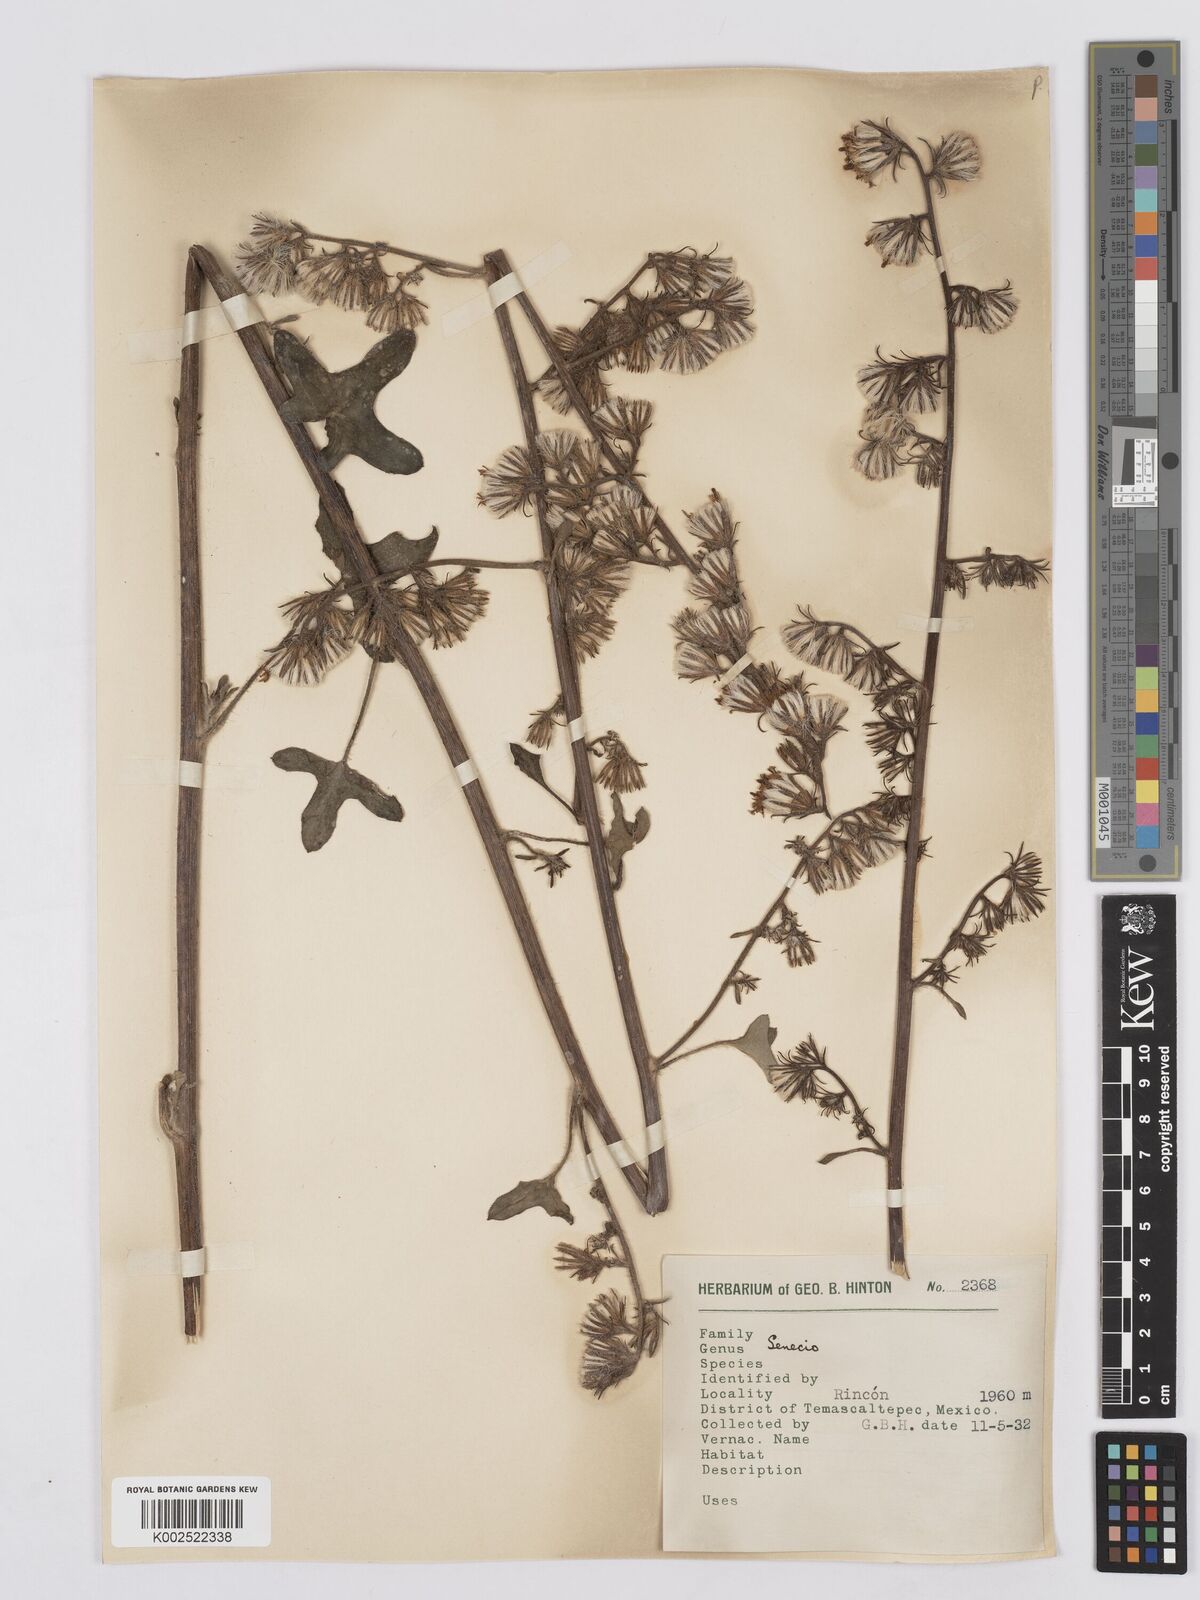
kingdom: Plantae
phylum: Tracheophyta
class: Magnoliopsida
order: Asterales
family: Asteraceae
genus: Digitacalia
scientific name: Digitacalia napeifolia
